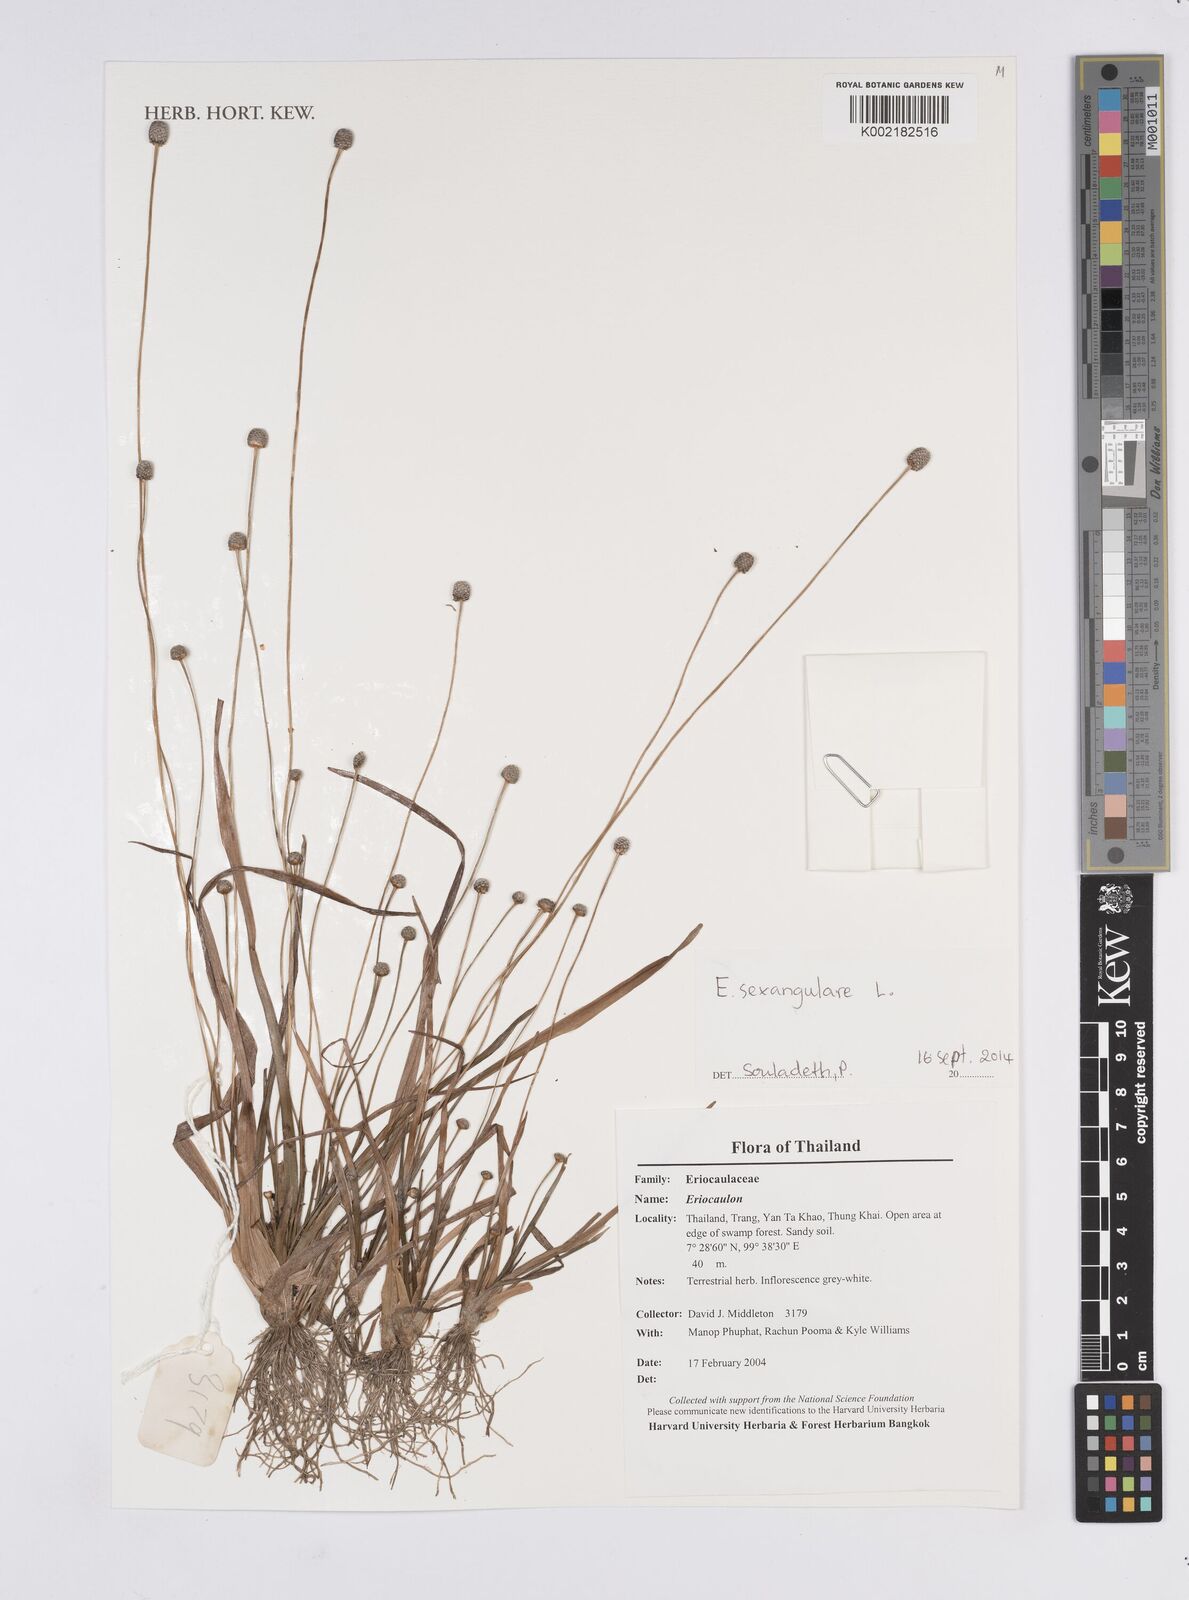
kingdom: Plantae
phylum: Tracheophyta
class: Liliopsida
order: Poales
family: Eriocaulaceae
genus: Eriocaulon
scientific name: Eriocaulon sexangulare
